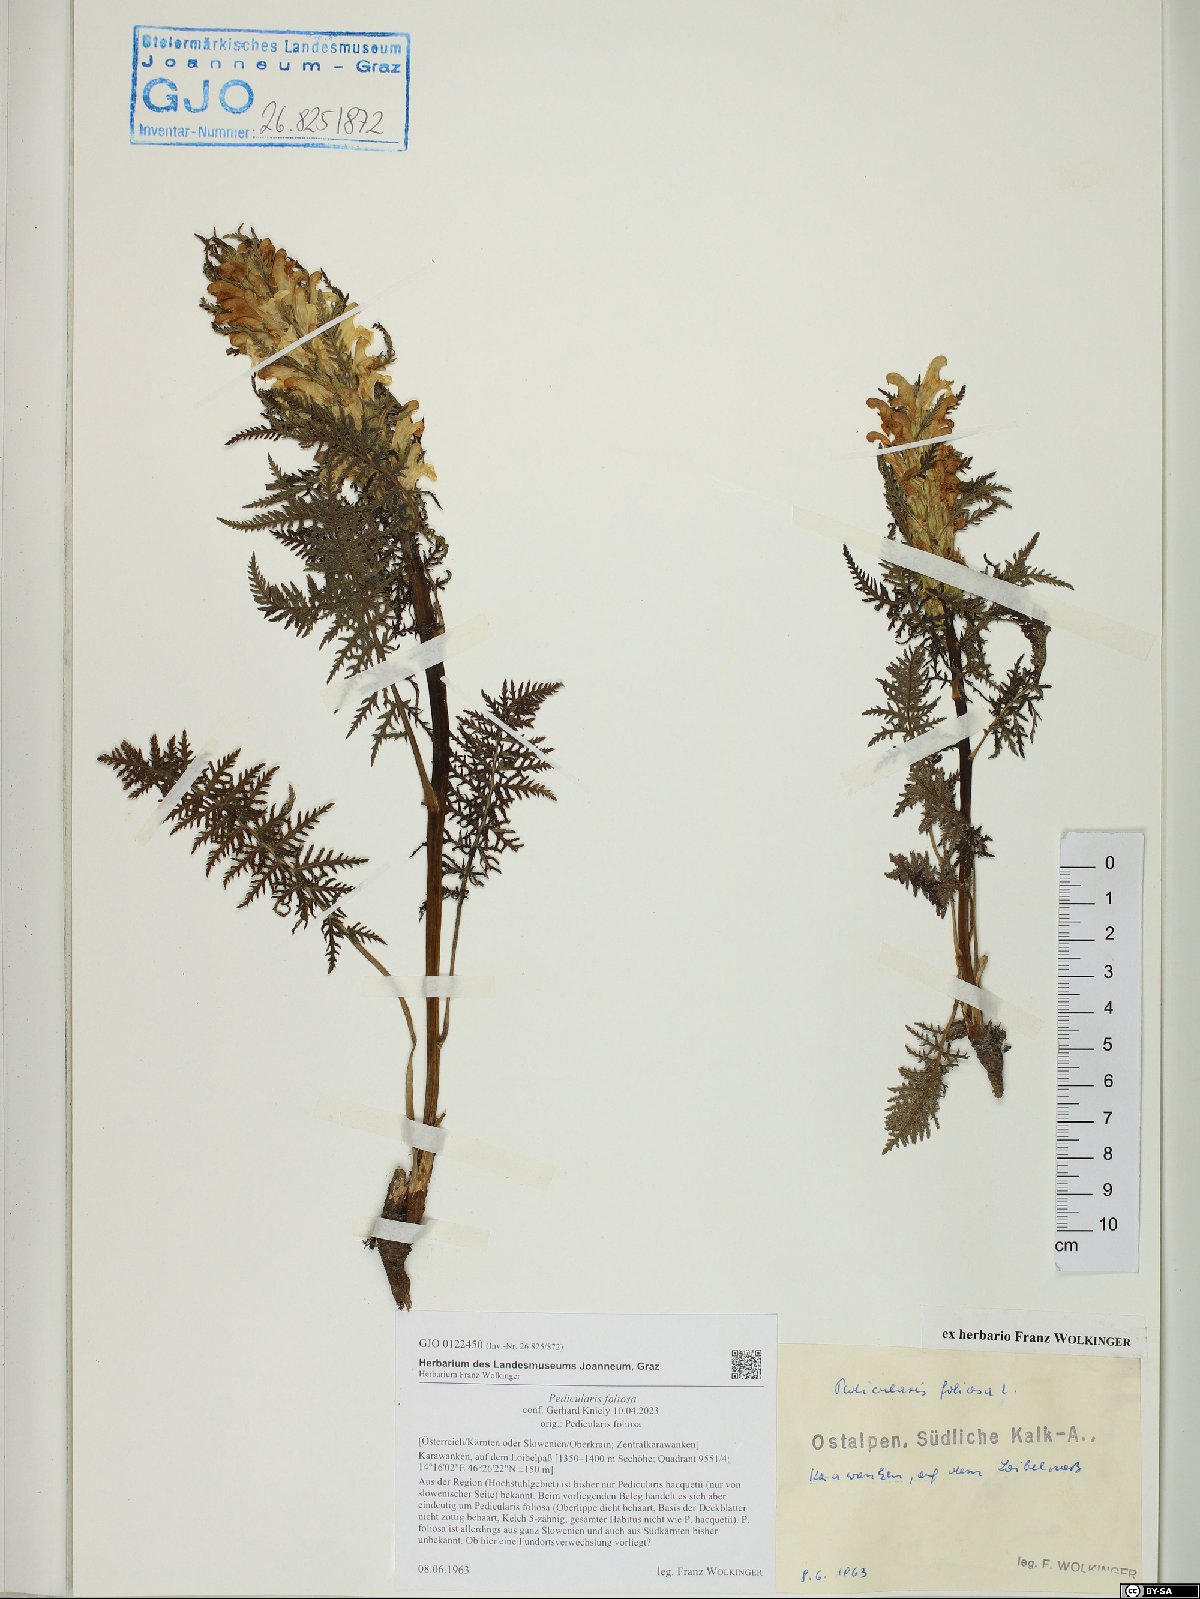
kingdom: Plantae
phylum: Tracheophyta
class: Magnoliopsida
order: Lamiales
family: Orobanchaceae
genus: Pedicularis
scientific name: Pedicularis foliosa
